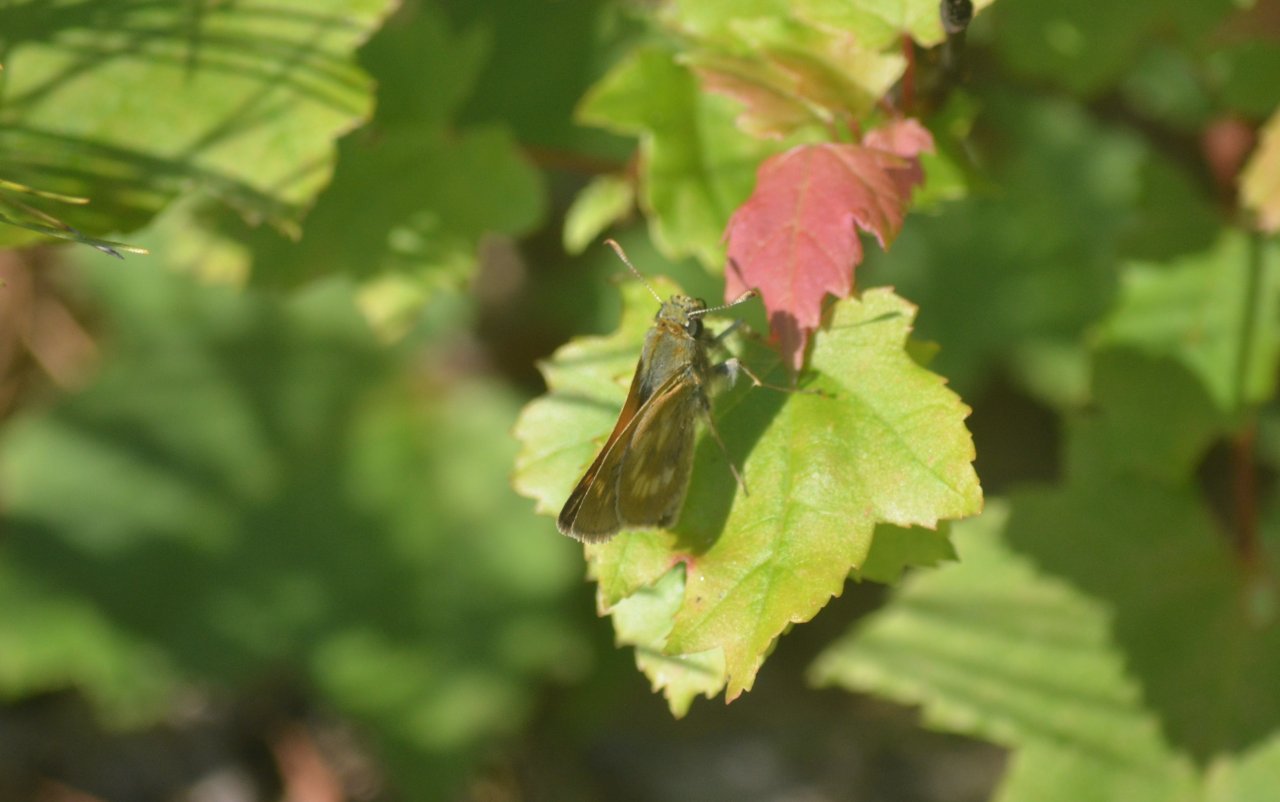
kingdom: Animalia
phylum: Arthropoda
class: Insecta
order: Lepidoptera
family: Hesperiidae
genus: Polites
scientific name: Polites
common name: Long Dash Skipper
